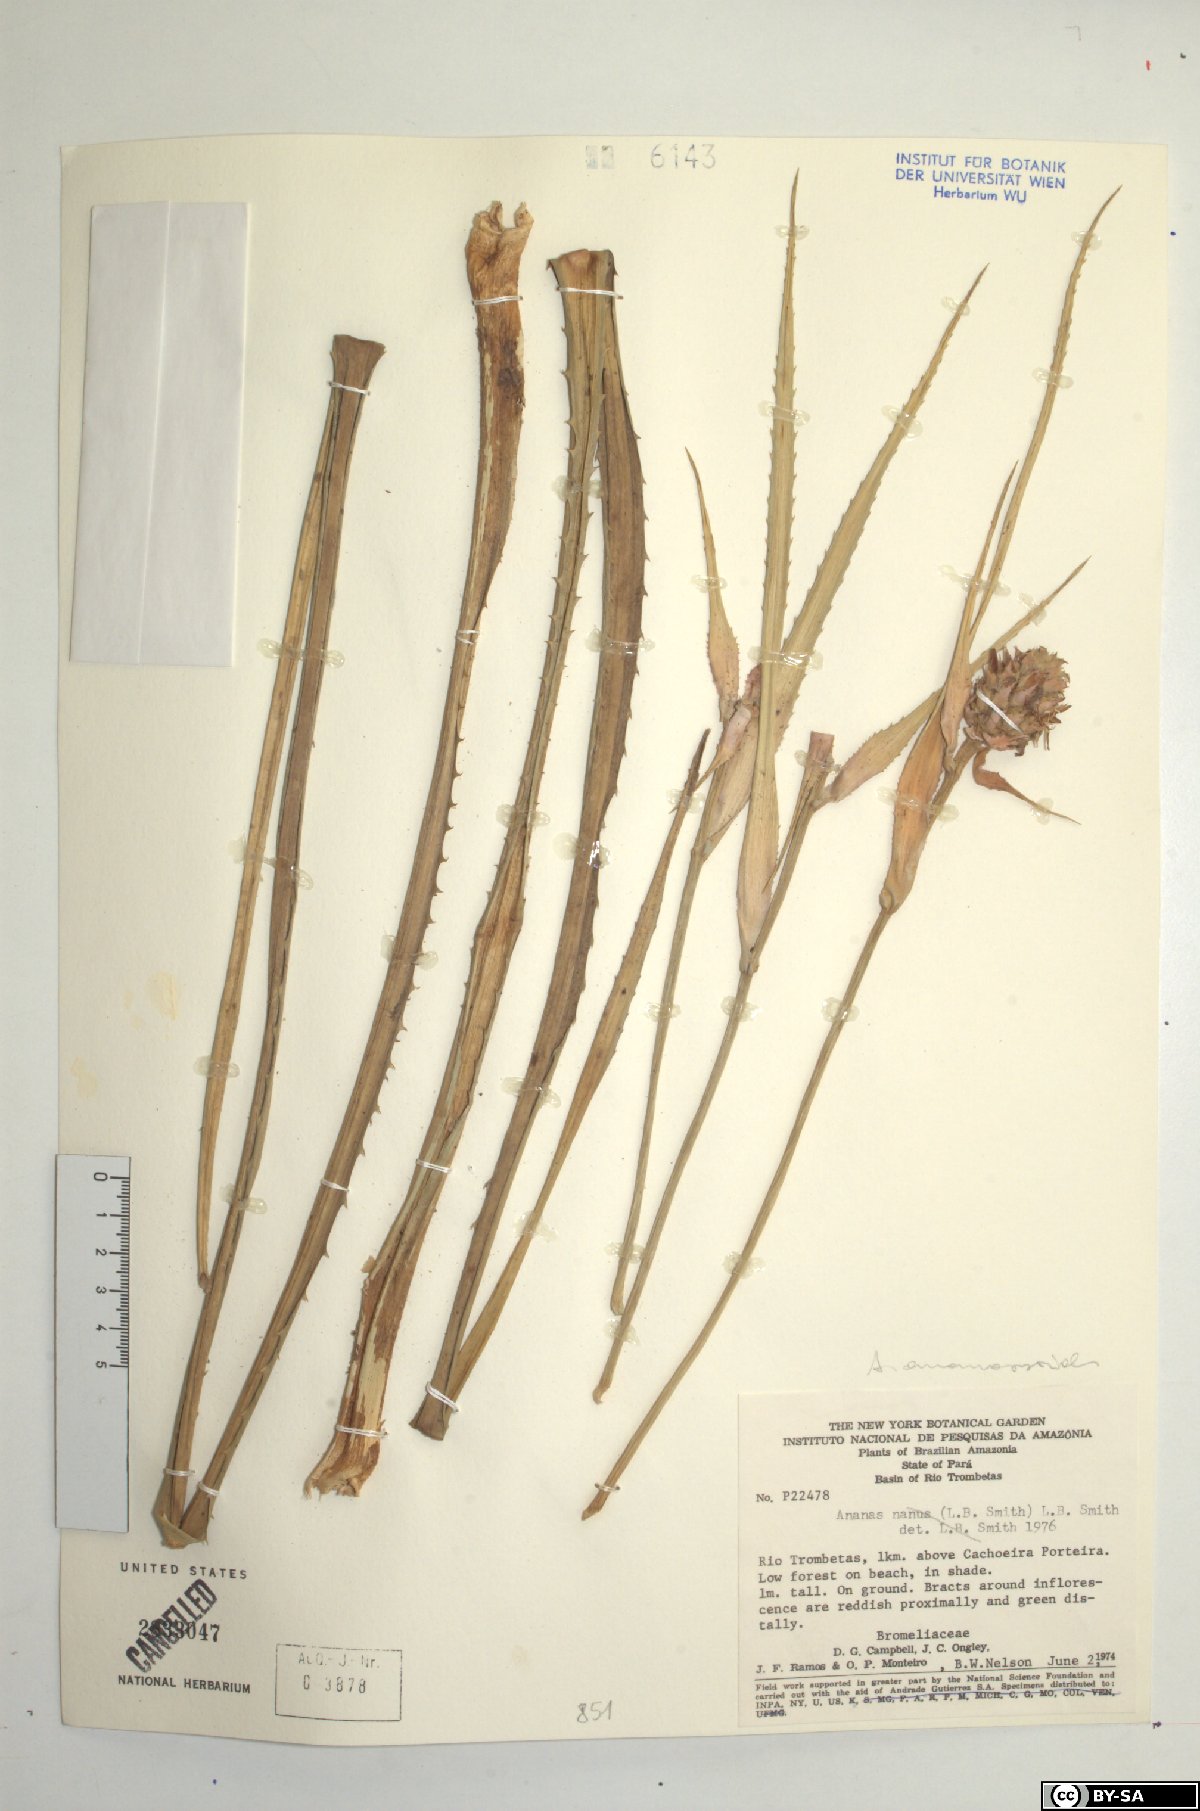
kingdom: Plantae
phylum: Tracheophyta
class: Liliopsida
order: Poales
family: Bromeliaceae
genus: Ananas
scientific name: Ananas comosus
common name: Pineapple
